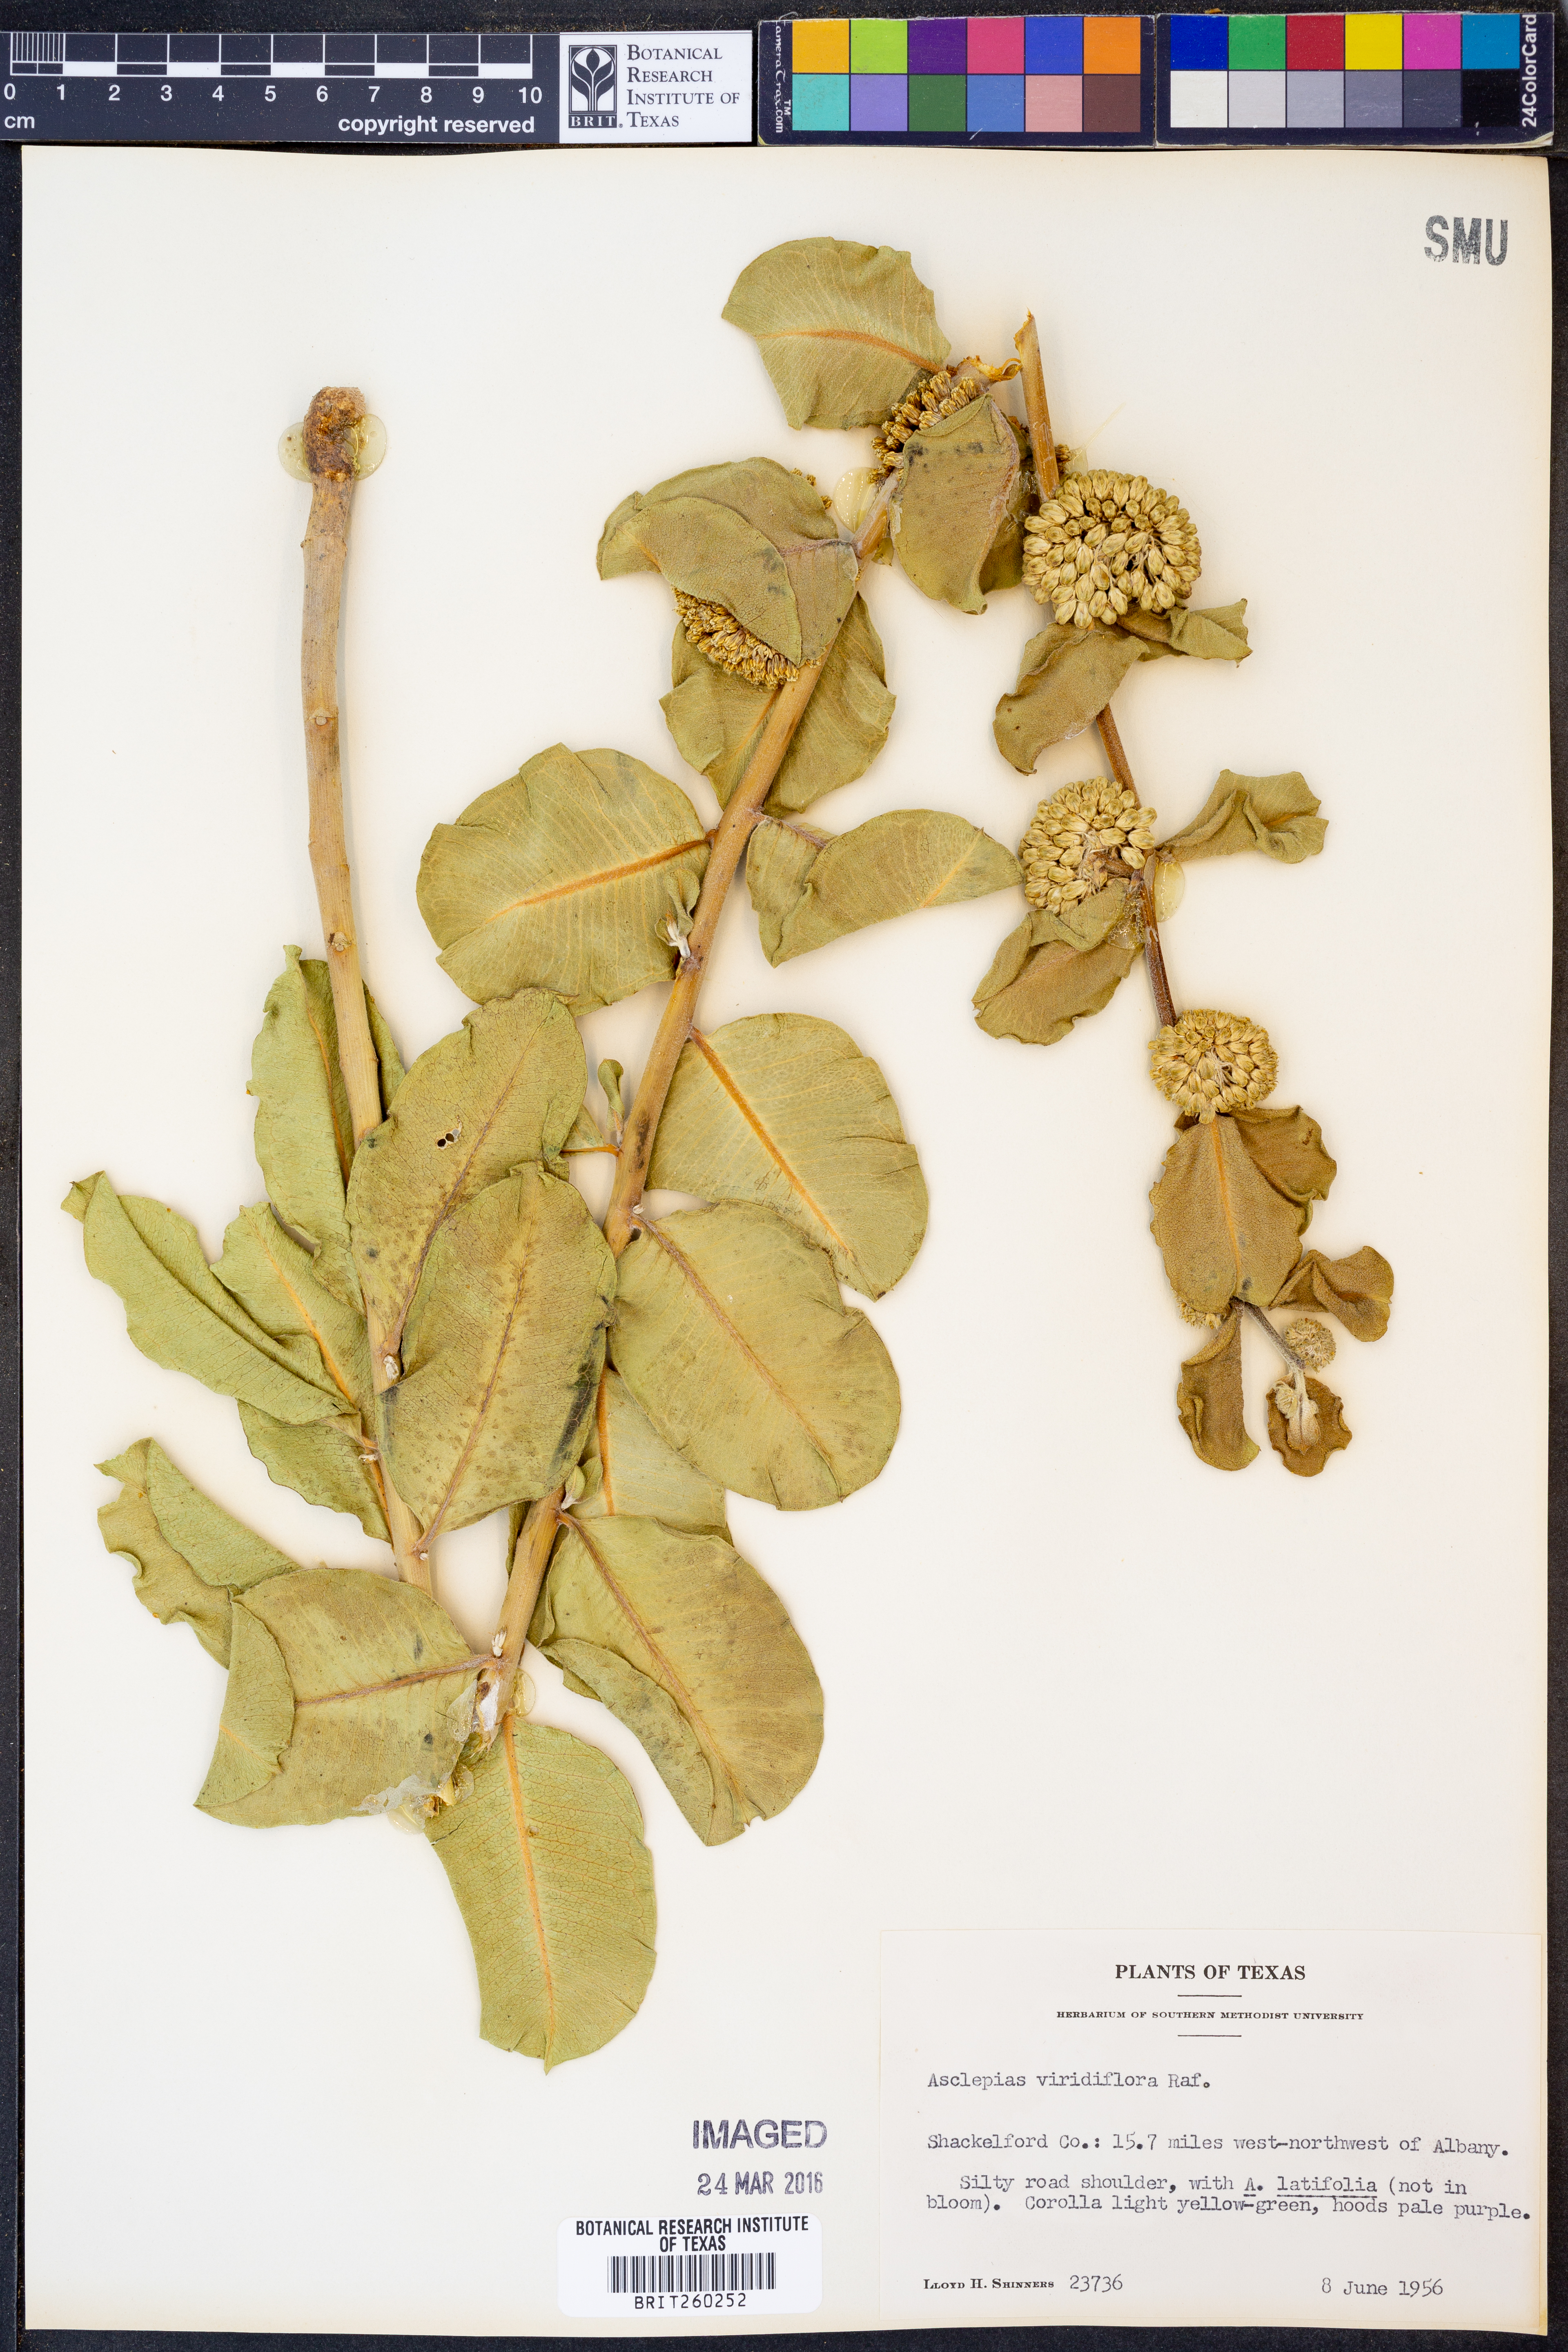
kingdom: Plantae
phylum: Tracheophyta
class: Magnoliopsida
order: Gentianales
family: Apocynaceae
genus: Asclepias
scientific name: Asclepias viridiflora
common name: Green comet milkweed
